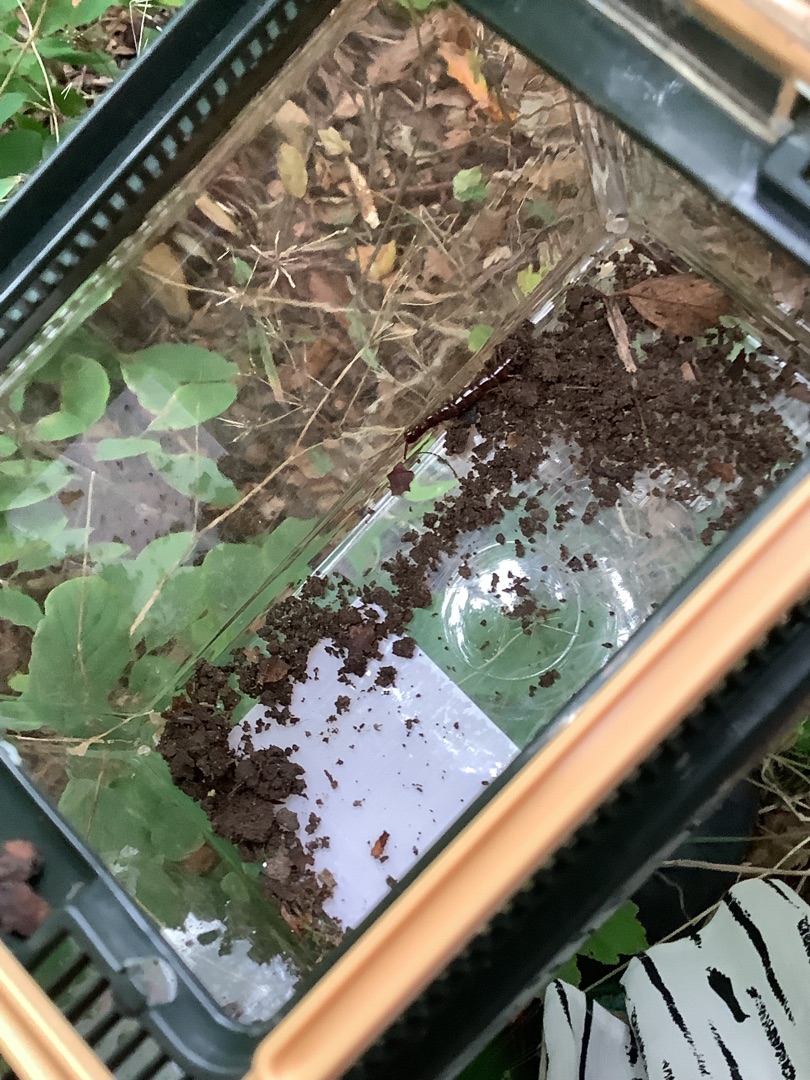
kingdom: Animalia
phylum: Arthropoda
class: Chilopoda
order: Lithobiomorpha
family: Lithobiidae
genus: Lithobius
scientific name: Lithobius forficatus
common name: Stenskolopender
